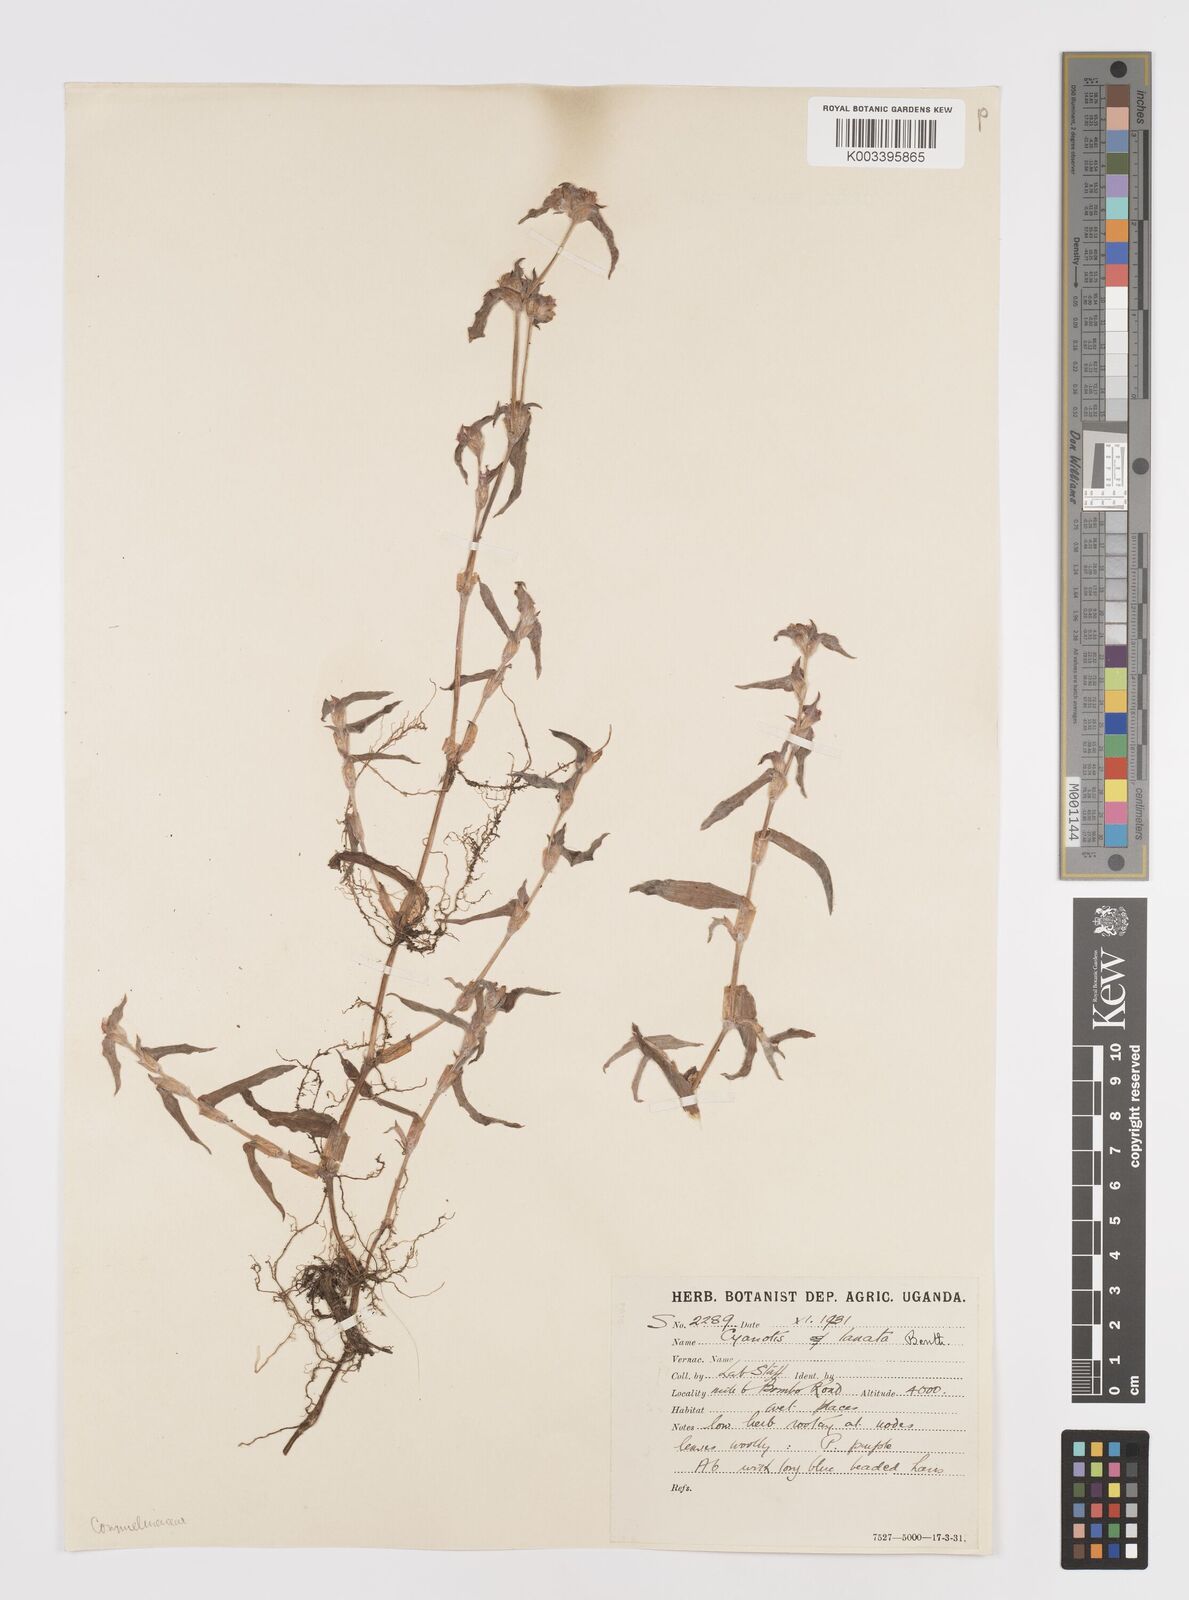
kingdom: Plantae
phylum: Tracheophyta
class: Liliopsida
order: Commelinales
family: Commelinaceae
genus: Cyanotis
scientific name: Cyanotis lanata
